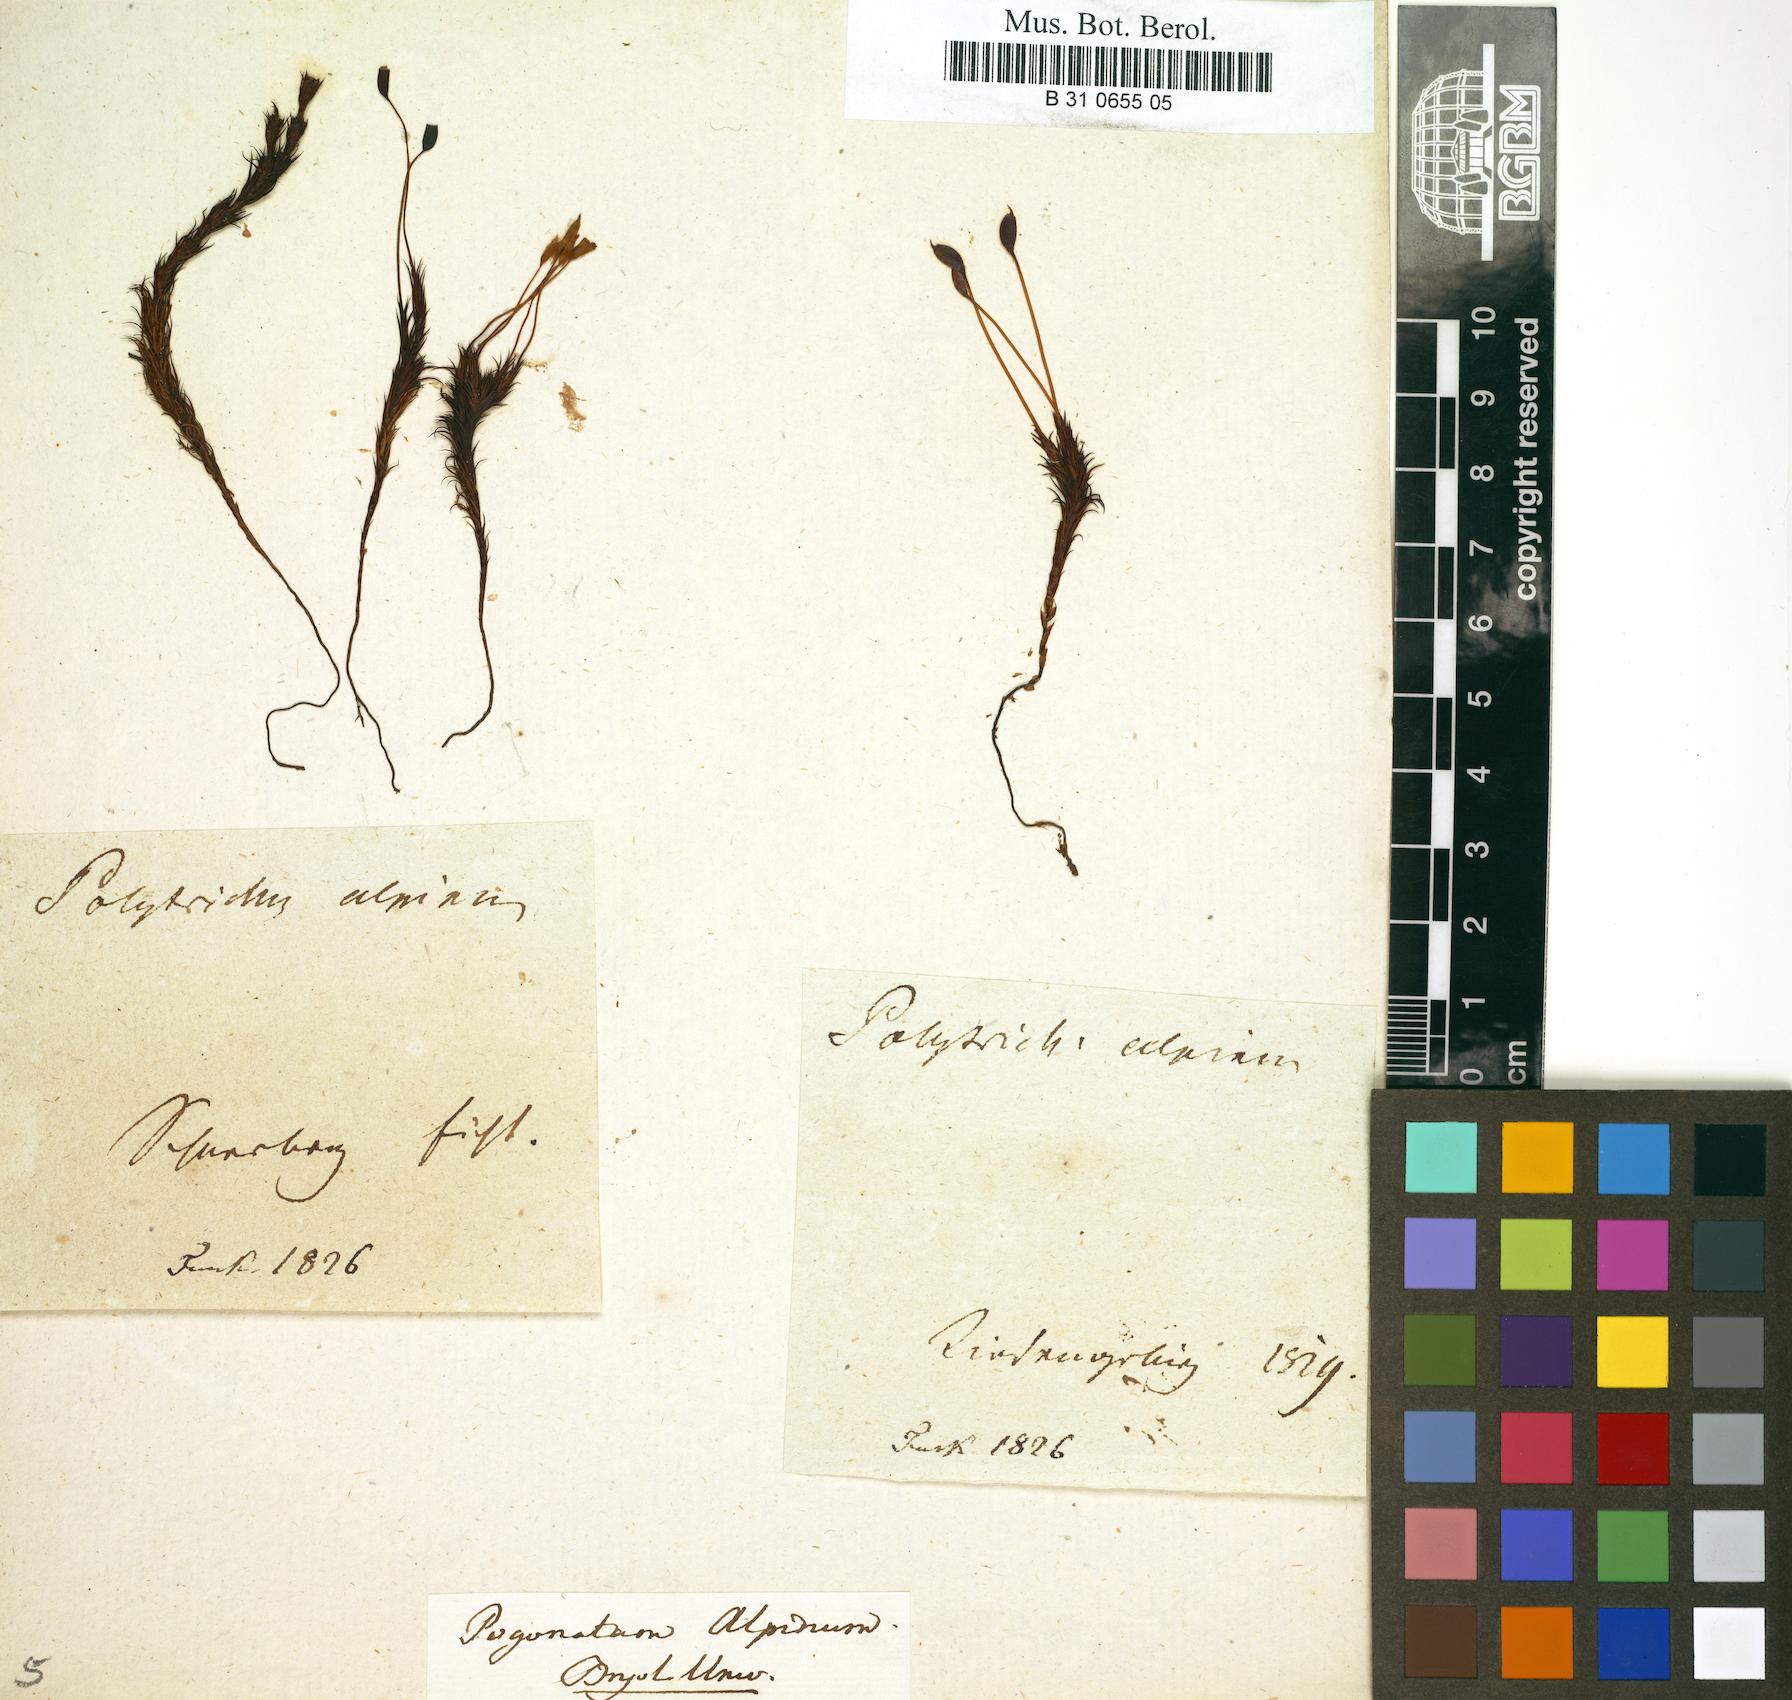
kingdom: Plantae
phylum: Bryophyta
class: Polytrichopsida
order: Polytrichales
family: Polytrichaceae
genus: Polytrichastrum
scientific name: Polytrichastrum alpinum
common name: Alpine haircap
